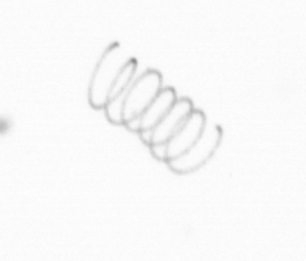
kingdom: Chromista
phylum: Ochrophyta
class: Bacillariophyceae
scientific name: Bacillariophyceae
